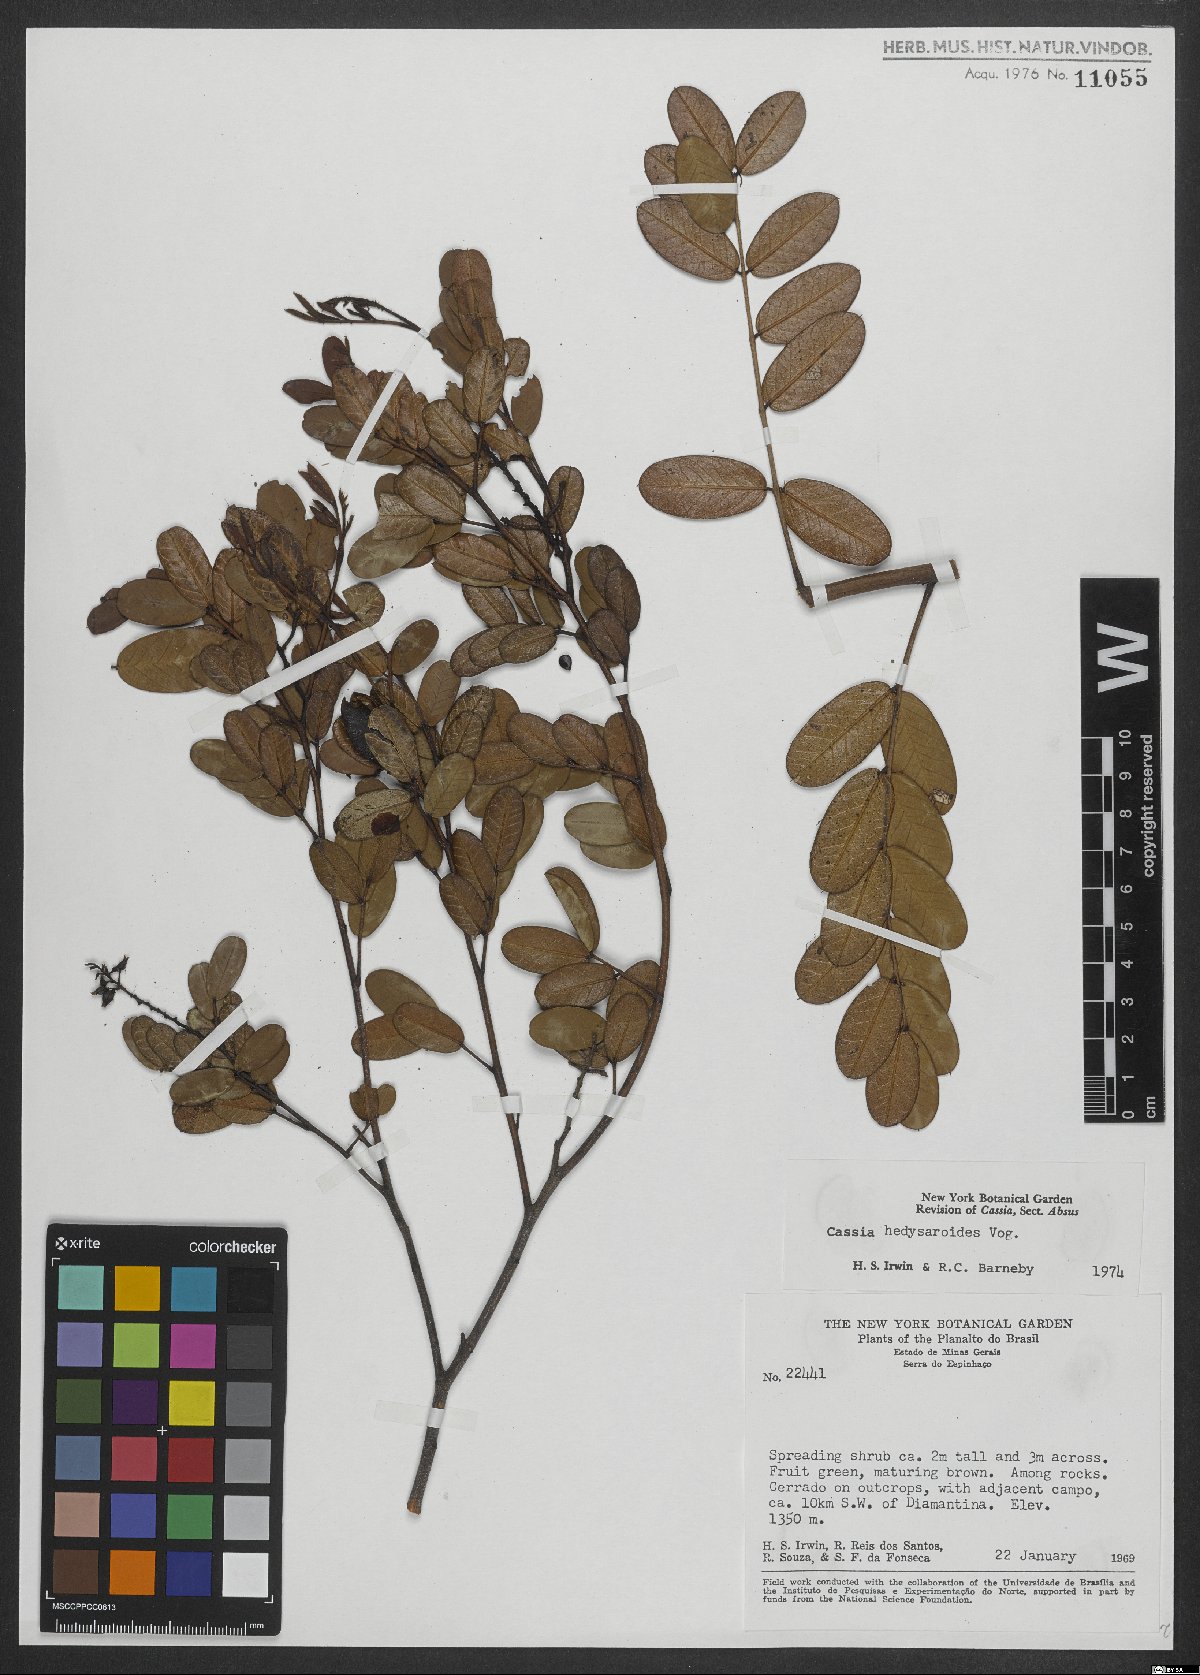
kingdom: Plantae
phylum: Tracheophyta
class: Magnoliopsida
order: Fabales
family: Fabaceae
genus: Chamaecrista
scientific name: Chamaecrista hedysaroides
